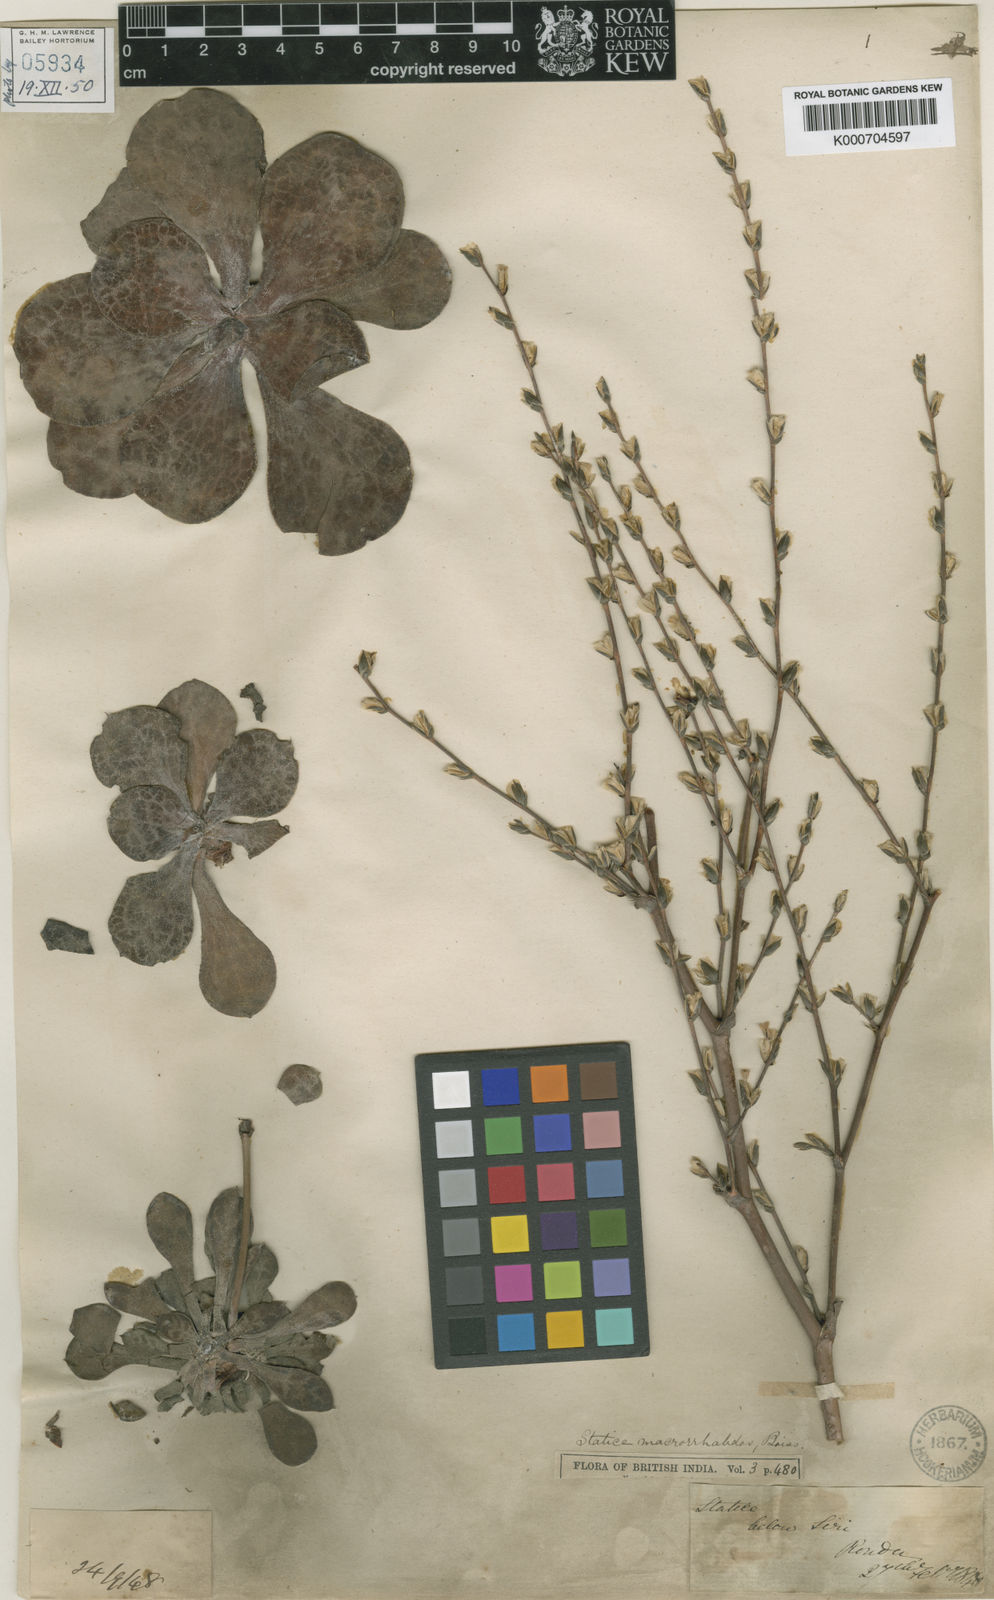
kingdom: Plantae
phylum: Tracheophyta
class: Magnoliopsida
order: Caryophyllales
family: Plumbaginaceae
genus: Dictyolimon
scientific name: Dictyolimon macrorrhabdos
